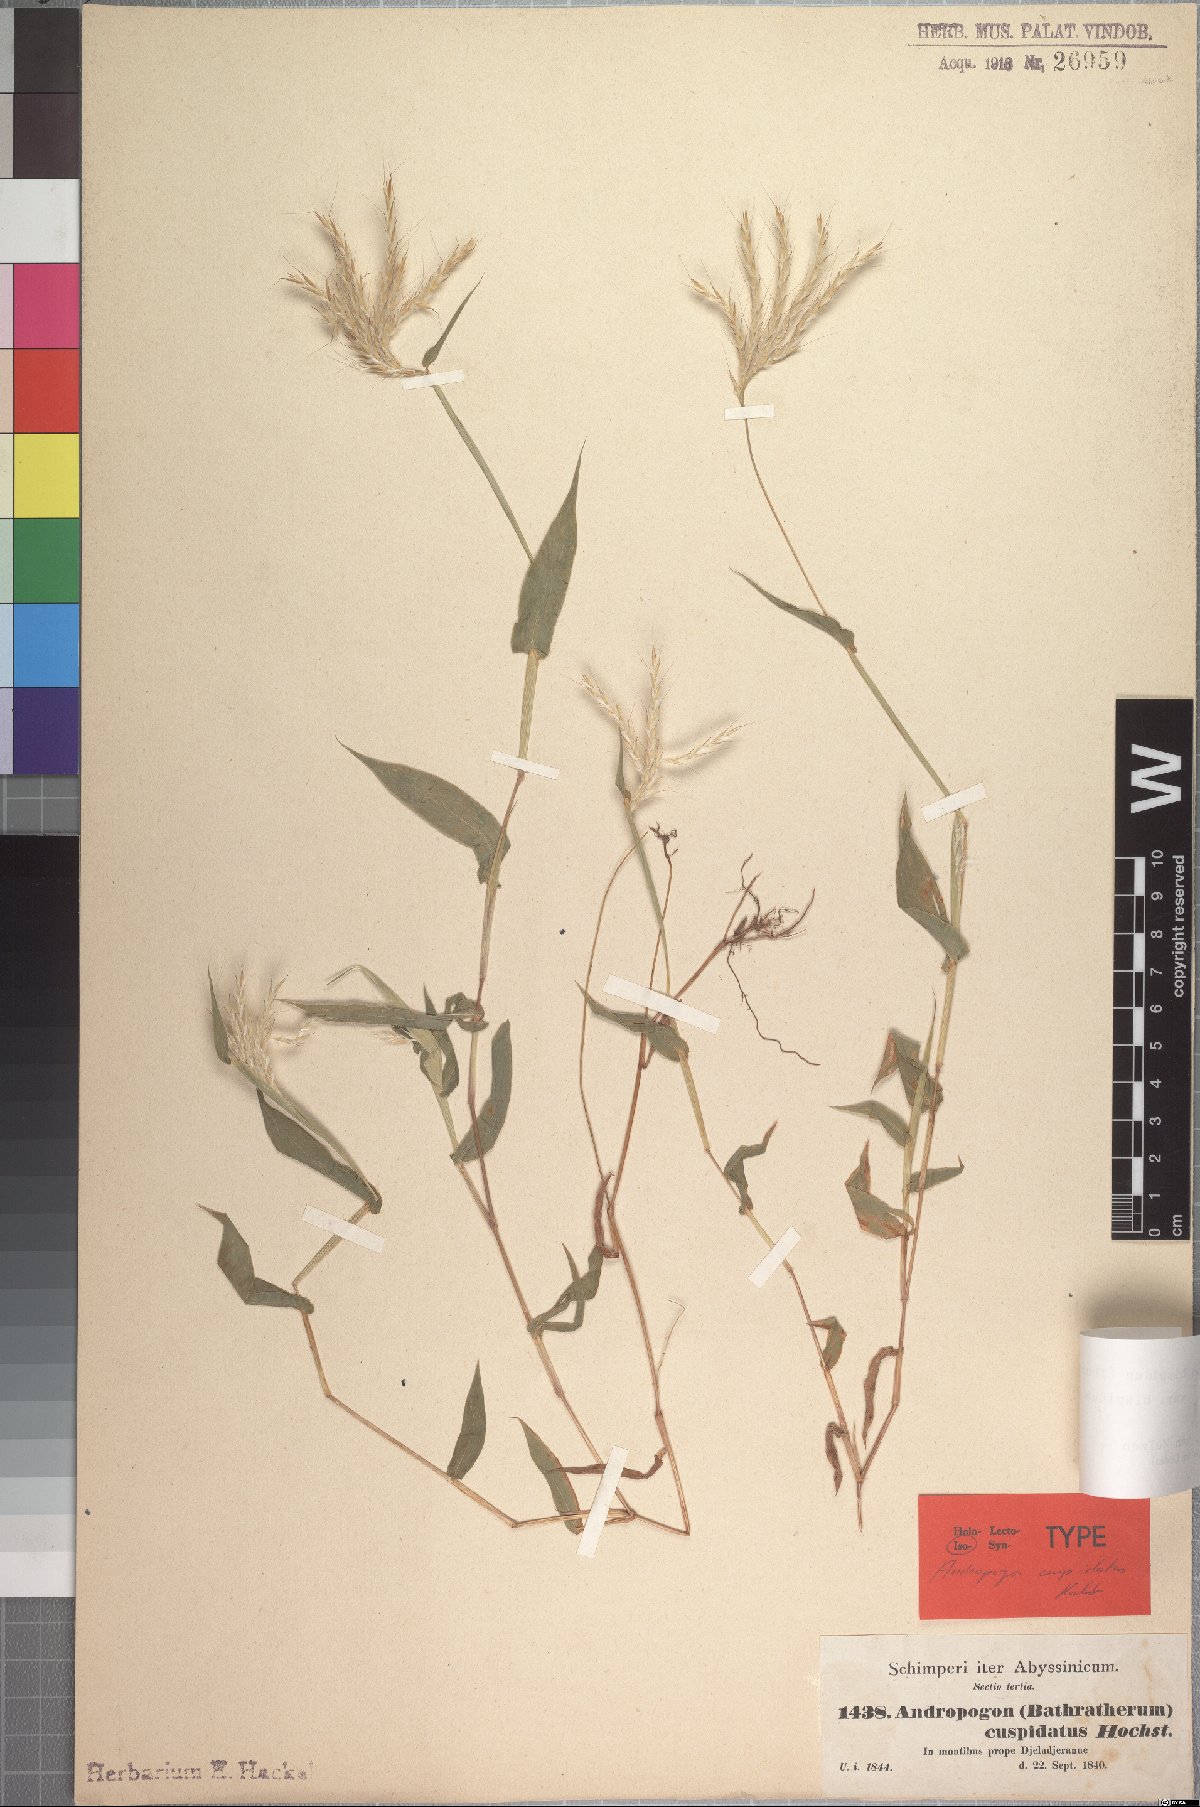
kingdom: Plantae
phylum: Tracheophyta
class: Liliopsida
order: Poales
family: Poaceae
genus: Arthraxon
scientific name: Arthraxon cuspidatus
